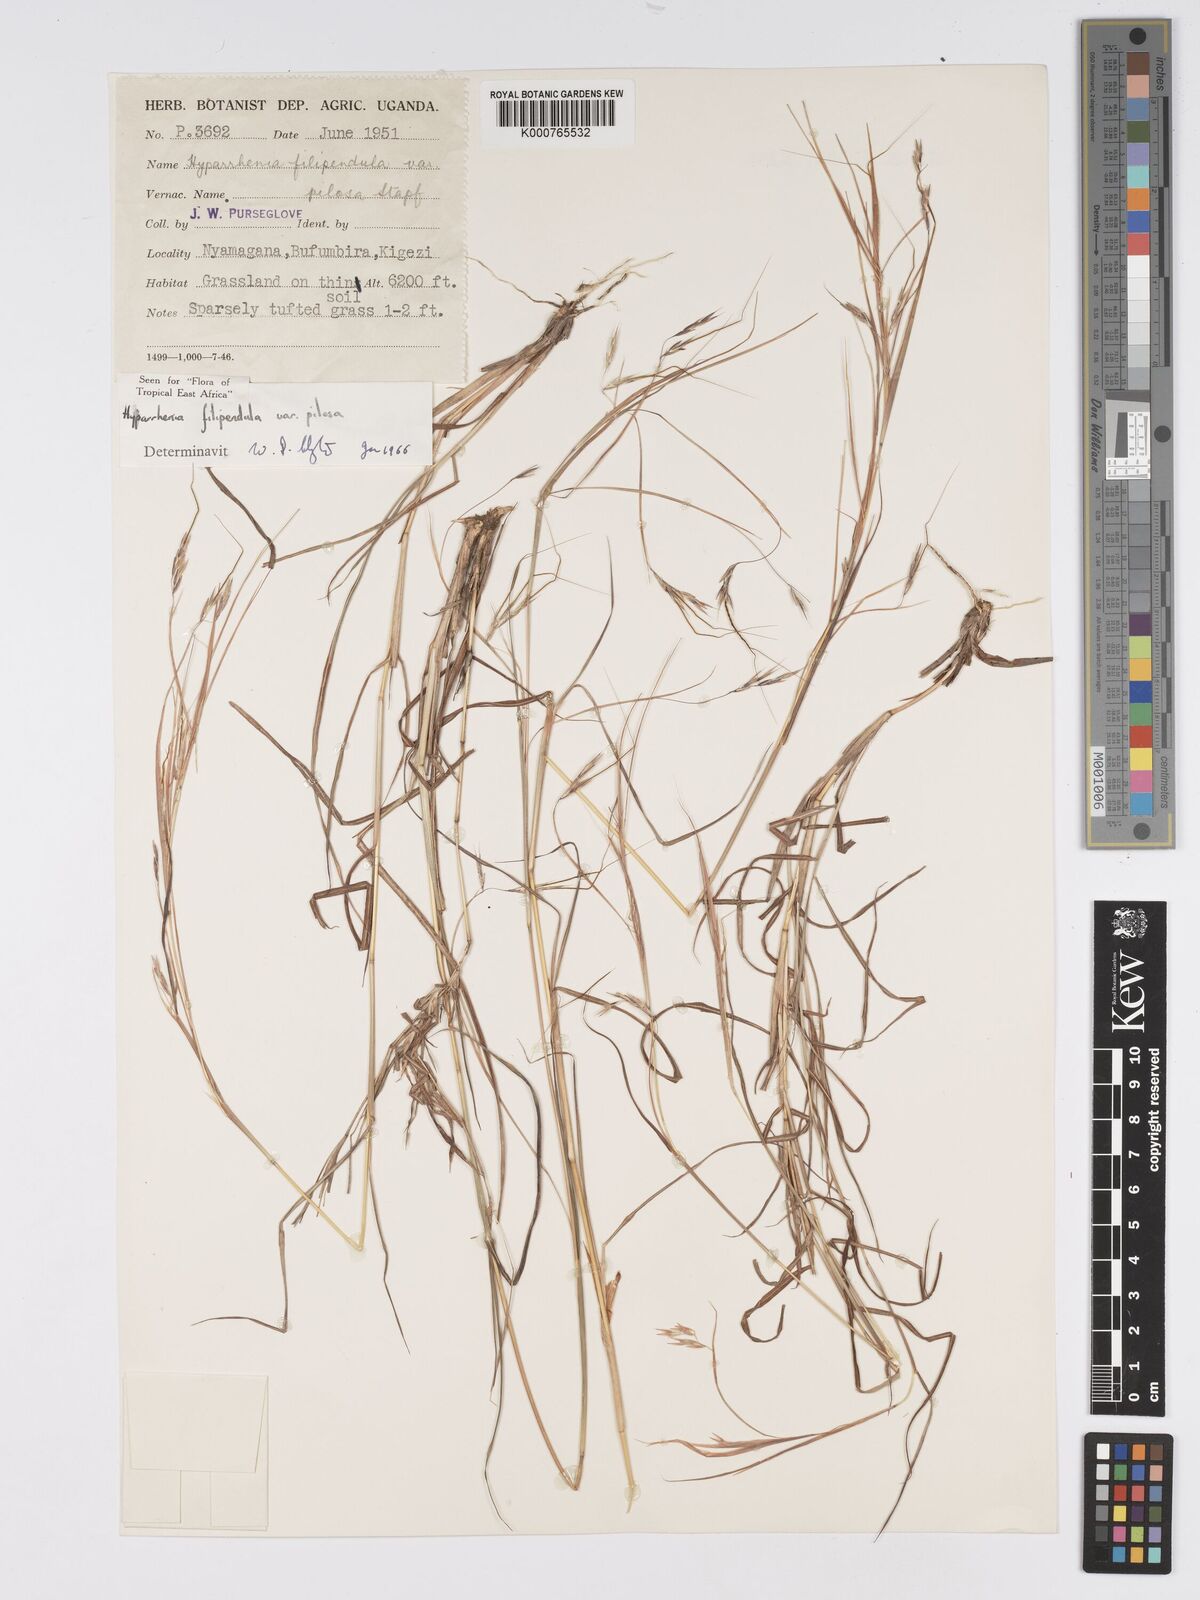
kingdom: Plantae
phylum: Tracheophyta
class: Liliopsida
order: Poales
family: Poaceae
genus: Hyparrhenia
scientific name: Hyparrhenia filipendula
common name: Tambookie grass
